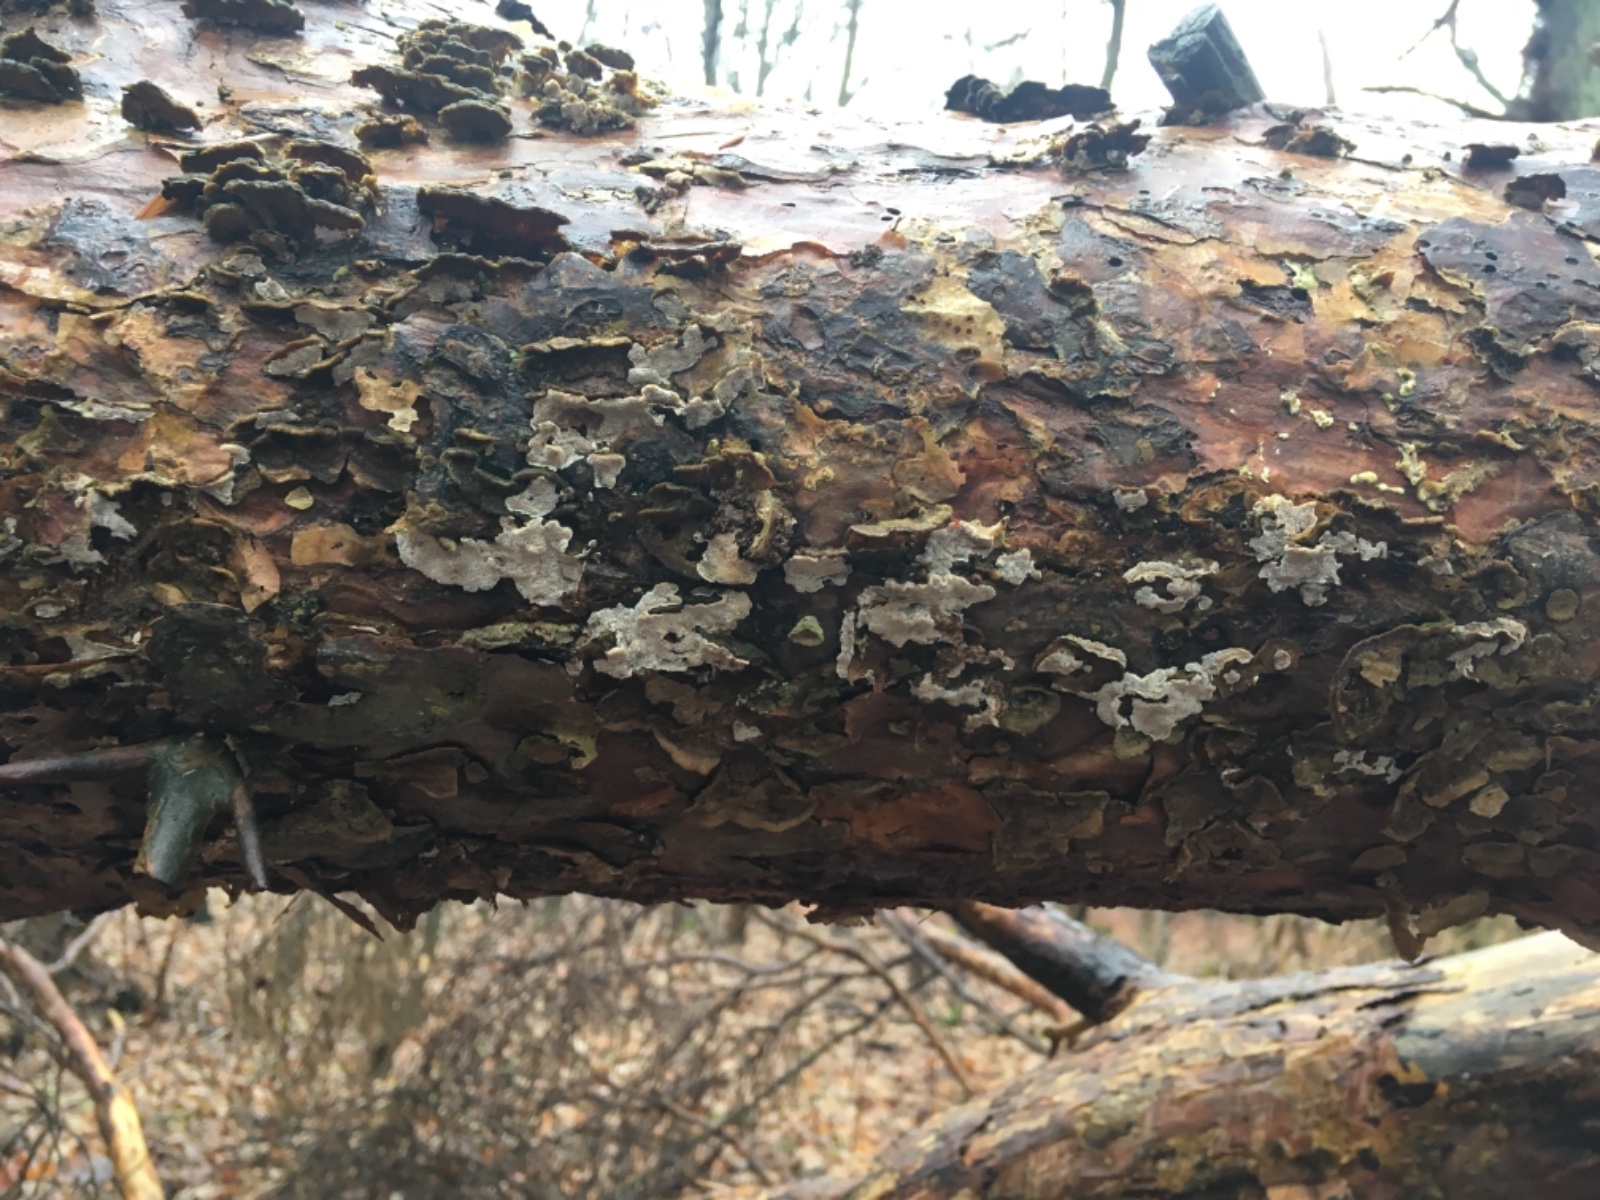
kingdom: Fungi
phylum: Basidiomycota
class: Agaricomycetes
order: Polyporales
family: Incrustoporiaceae
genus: Skeletocutis
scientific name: Skeletocutis carneogrisea
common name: rødgrå krystalporesvamp
